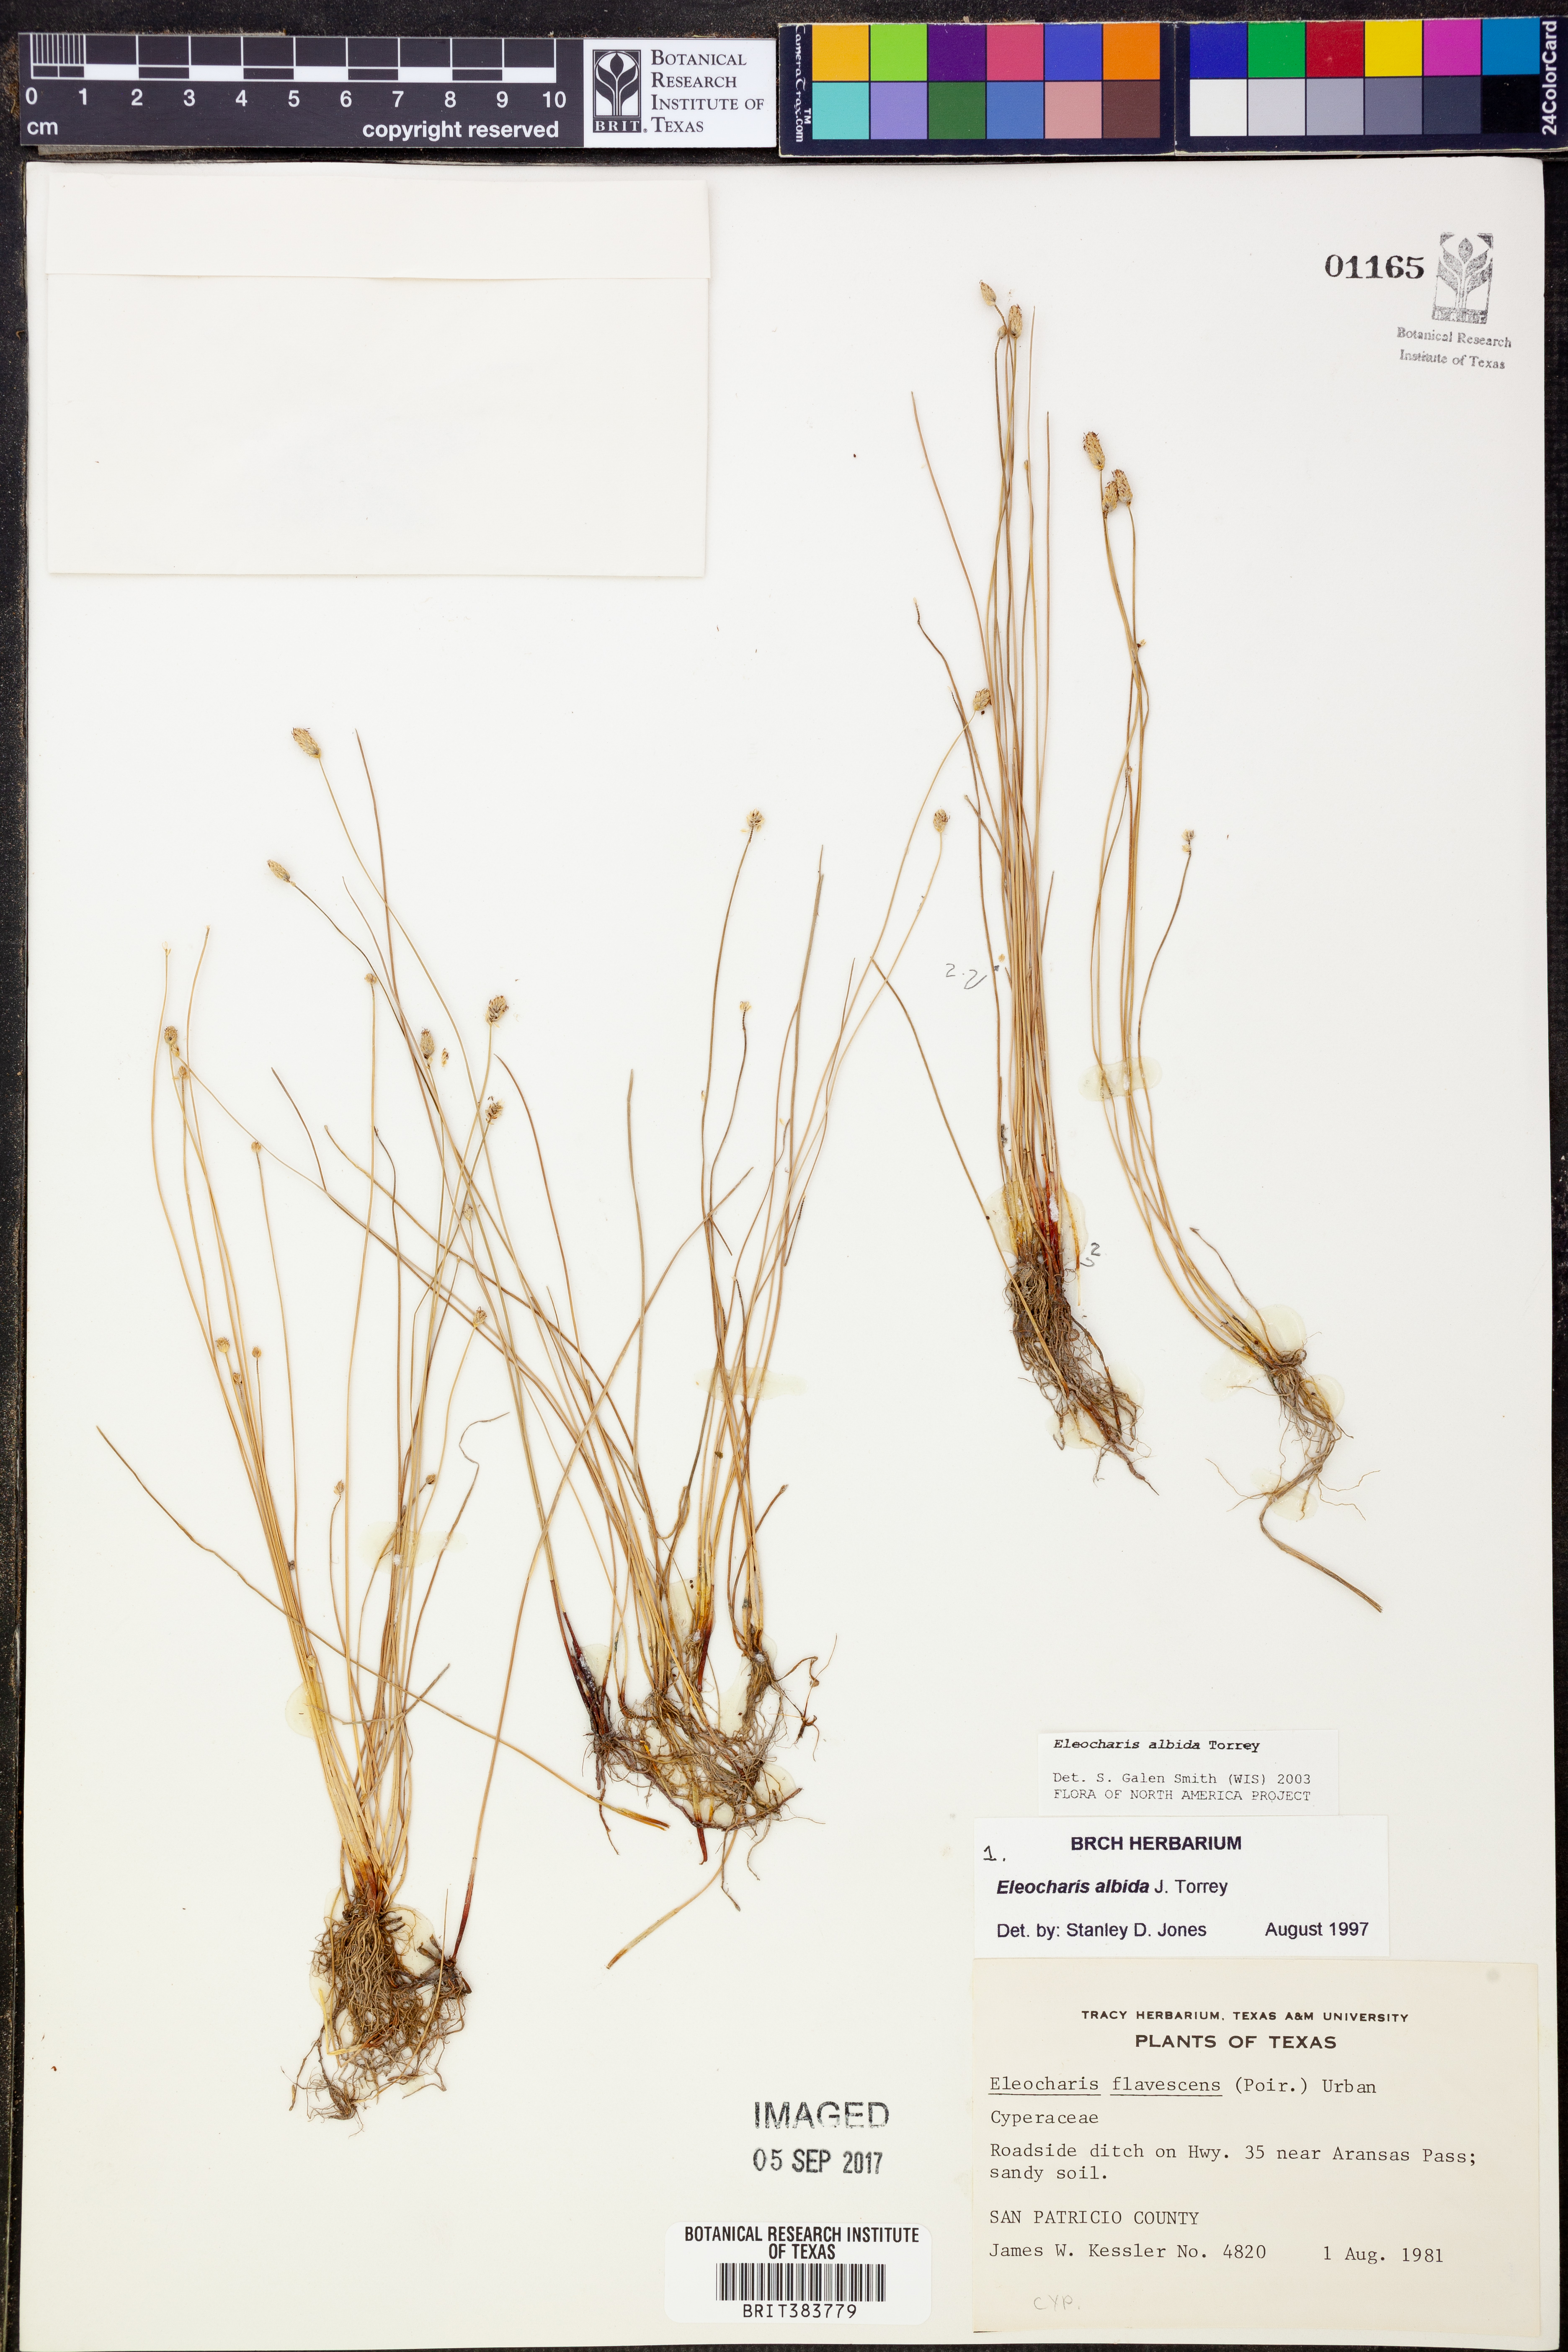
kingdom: Plantae
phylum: Tracheophyta
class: Liliopsida
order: Poales
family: Cyperaceae
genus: Eleocharis
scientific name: Eleocharis albida
